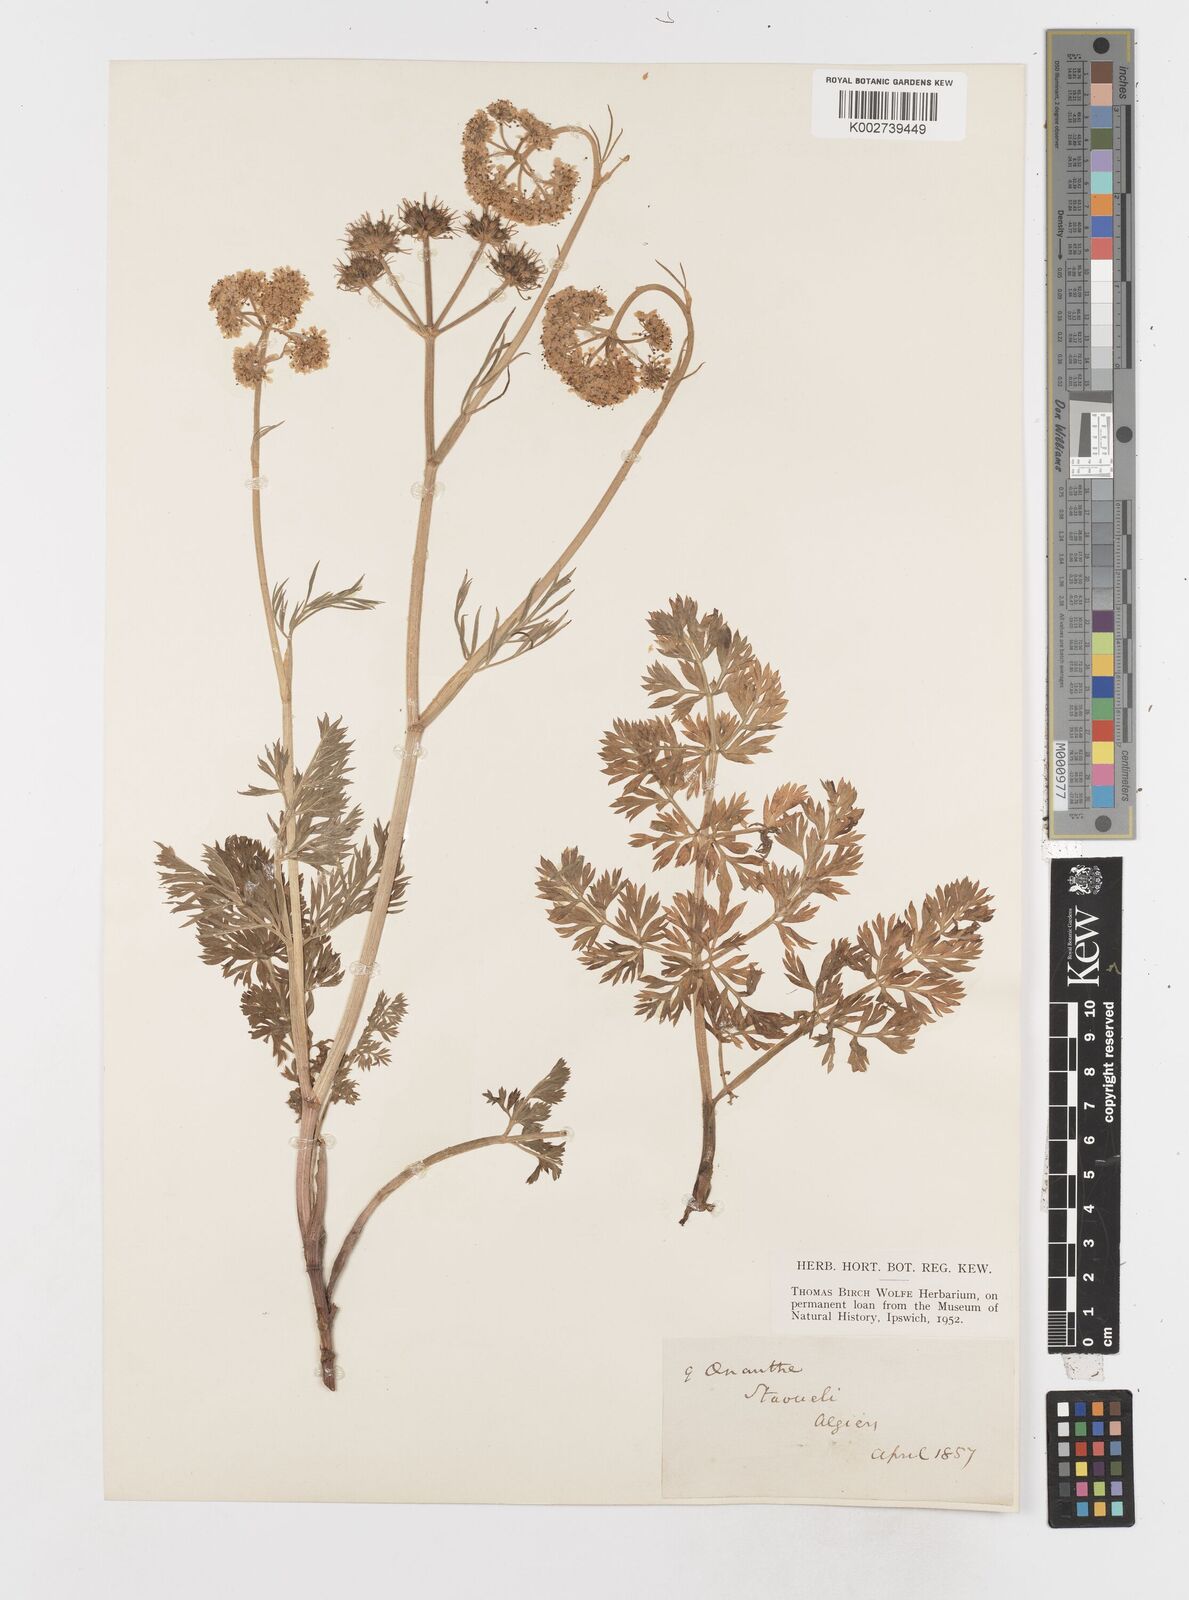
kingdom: Plantae
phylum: Tracheophyta
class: Magnoliopsida
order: Apiales
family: Apiaceae
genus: Oenanthe
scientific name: Oenanthe
